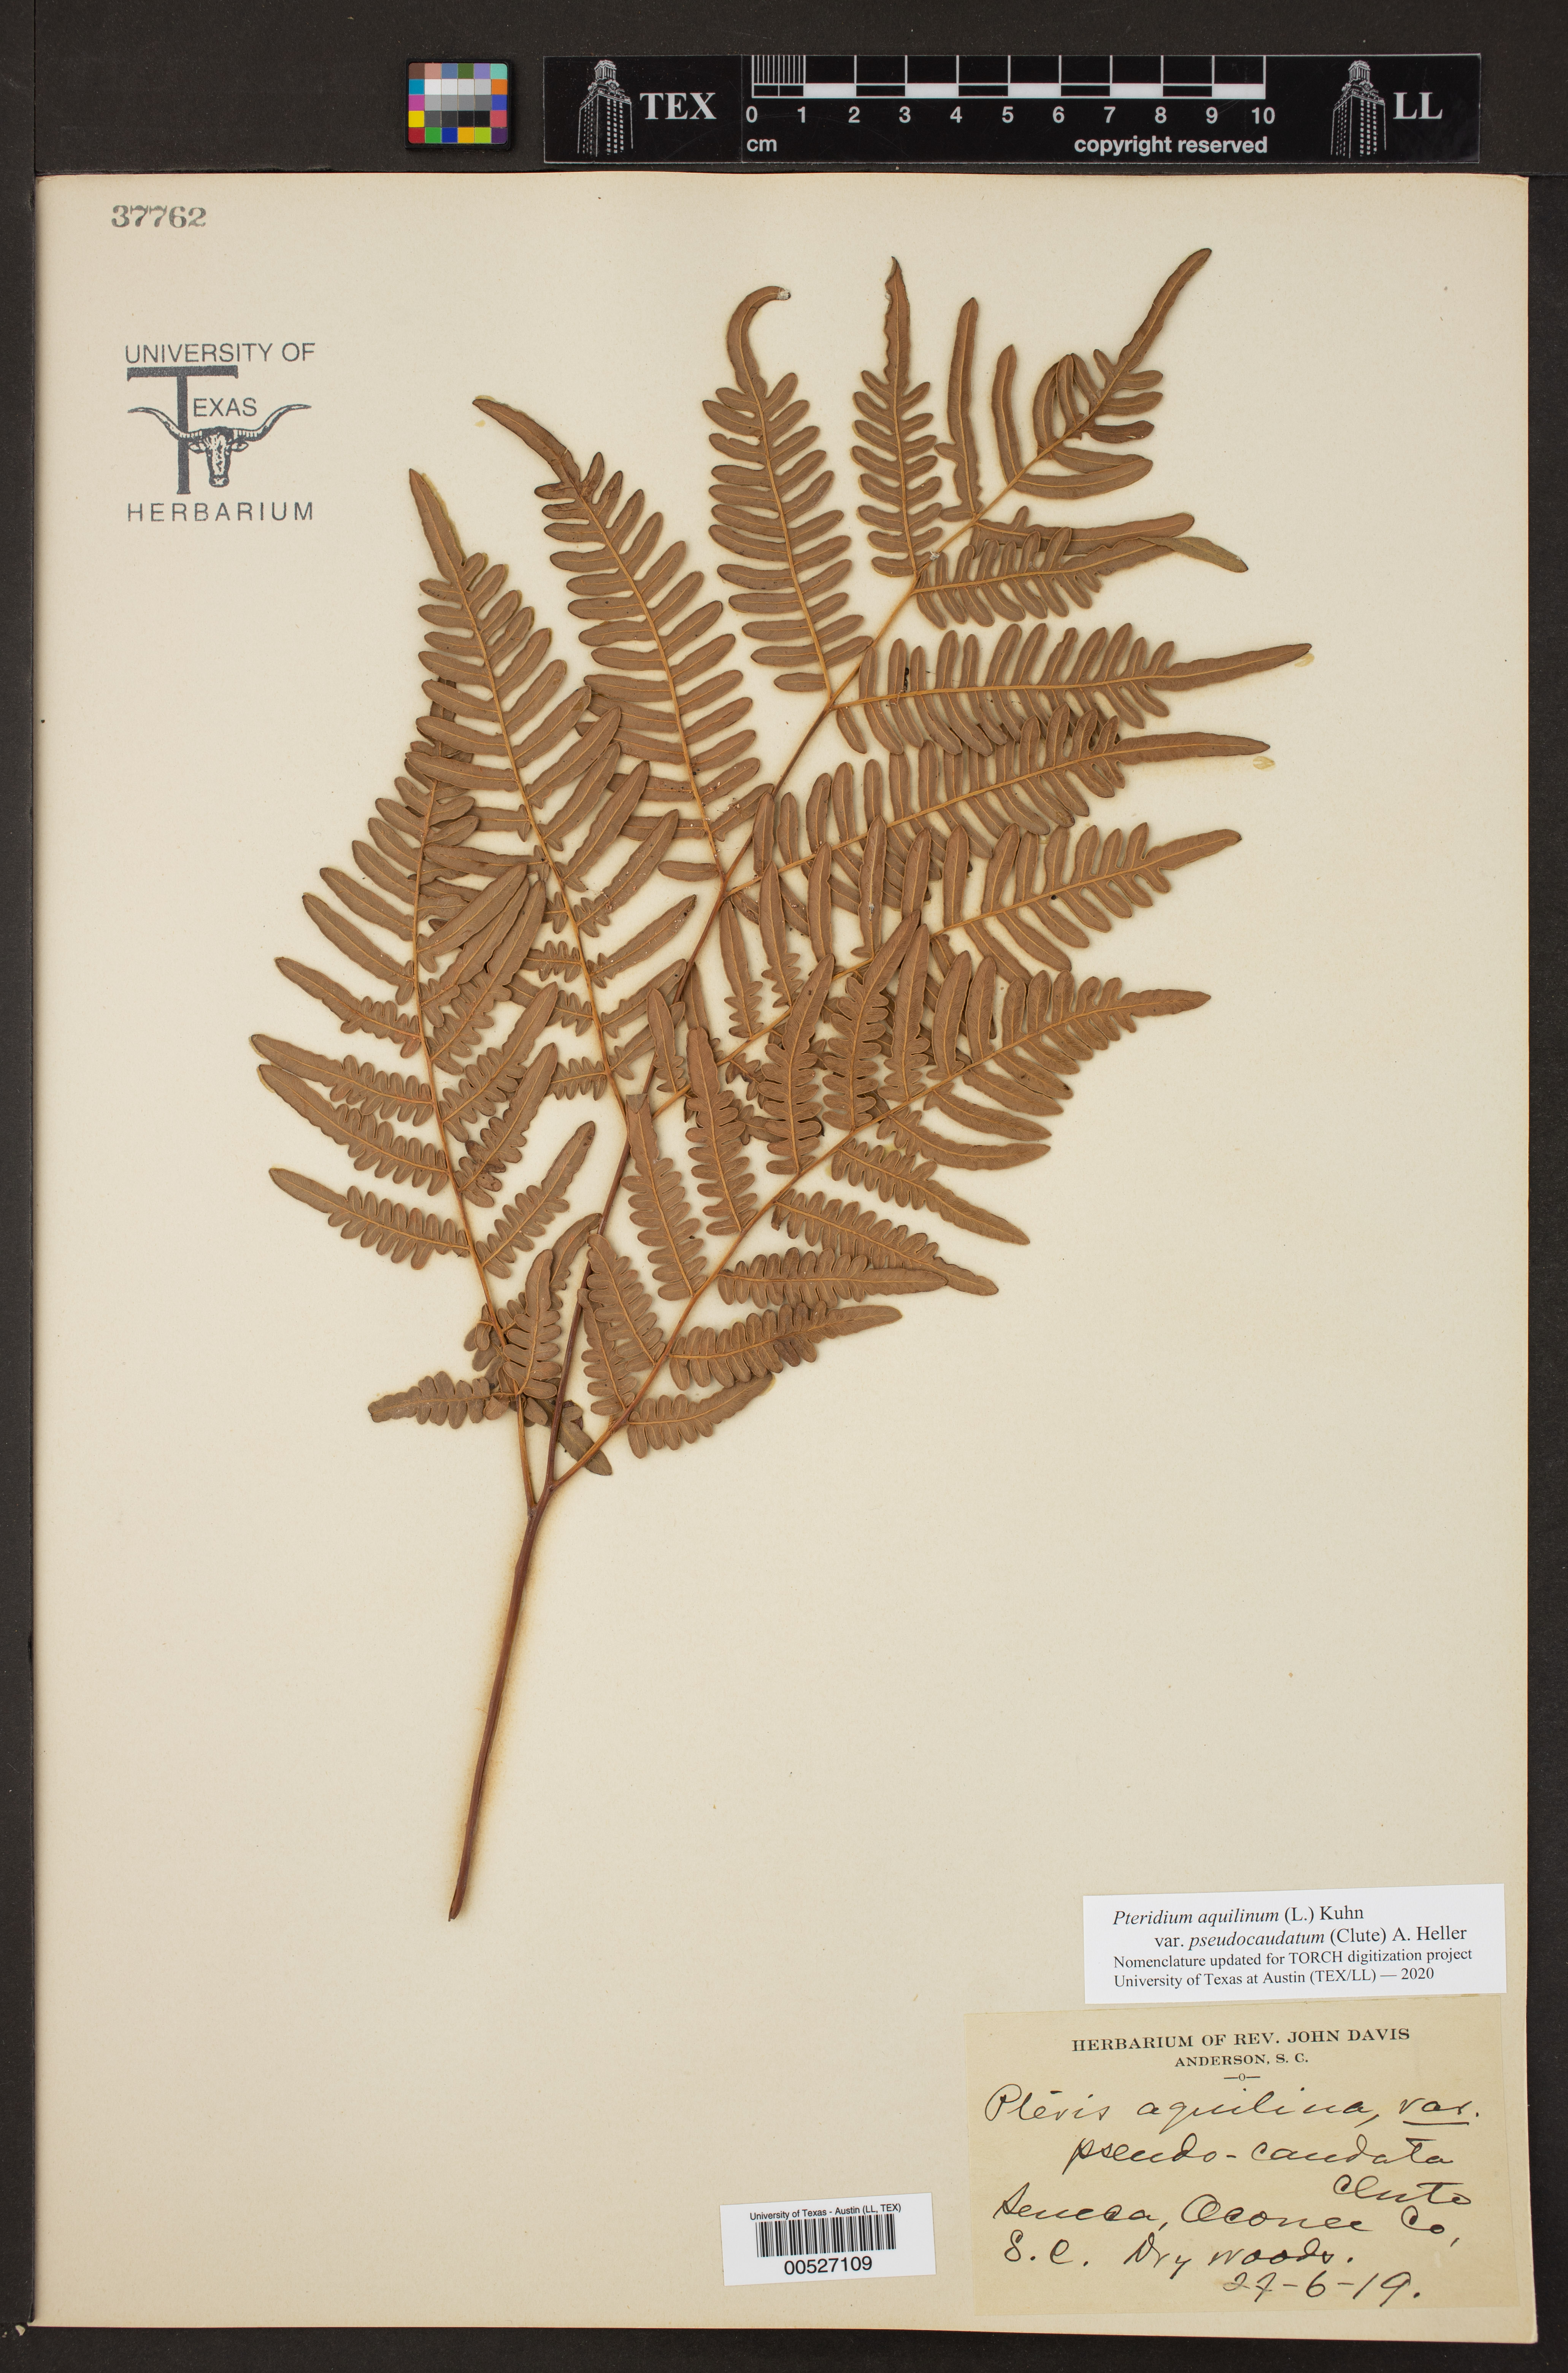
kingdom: Plantae
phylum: Tracheophyta
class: Polypodiopsida
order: Polypodiales
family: Dennstaedtiaceae
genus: Pteridium
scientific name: Pteridium
